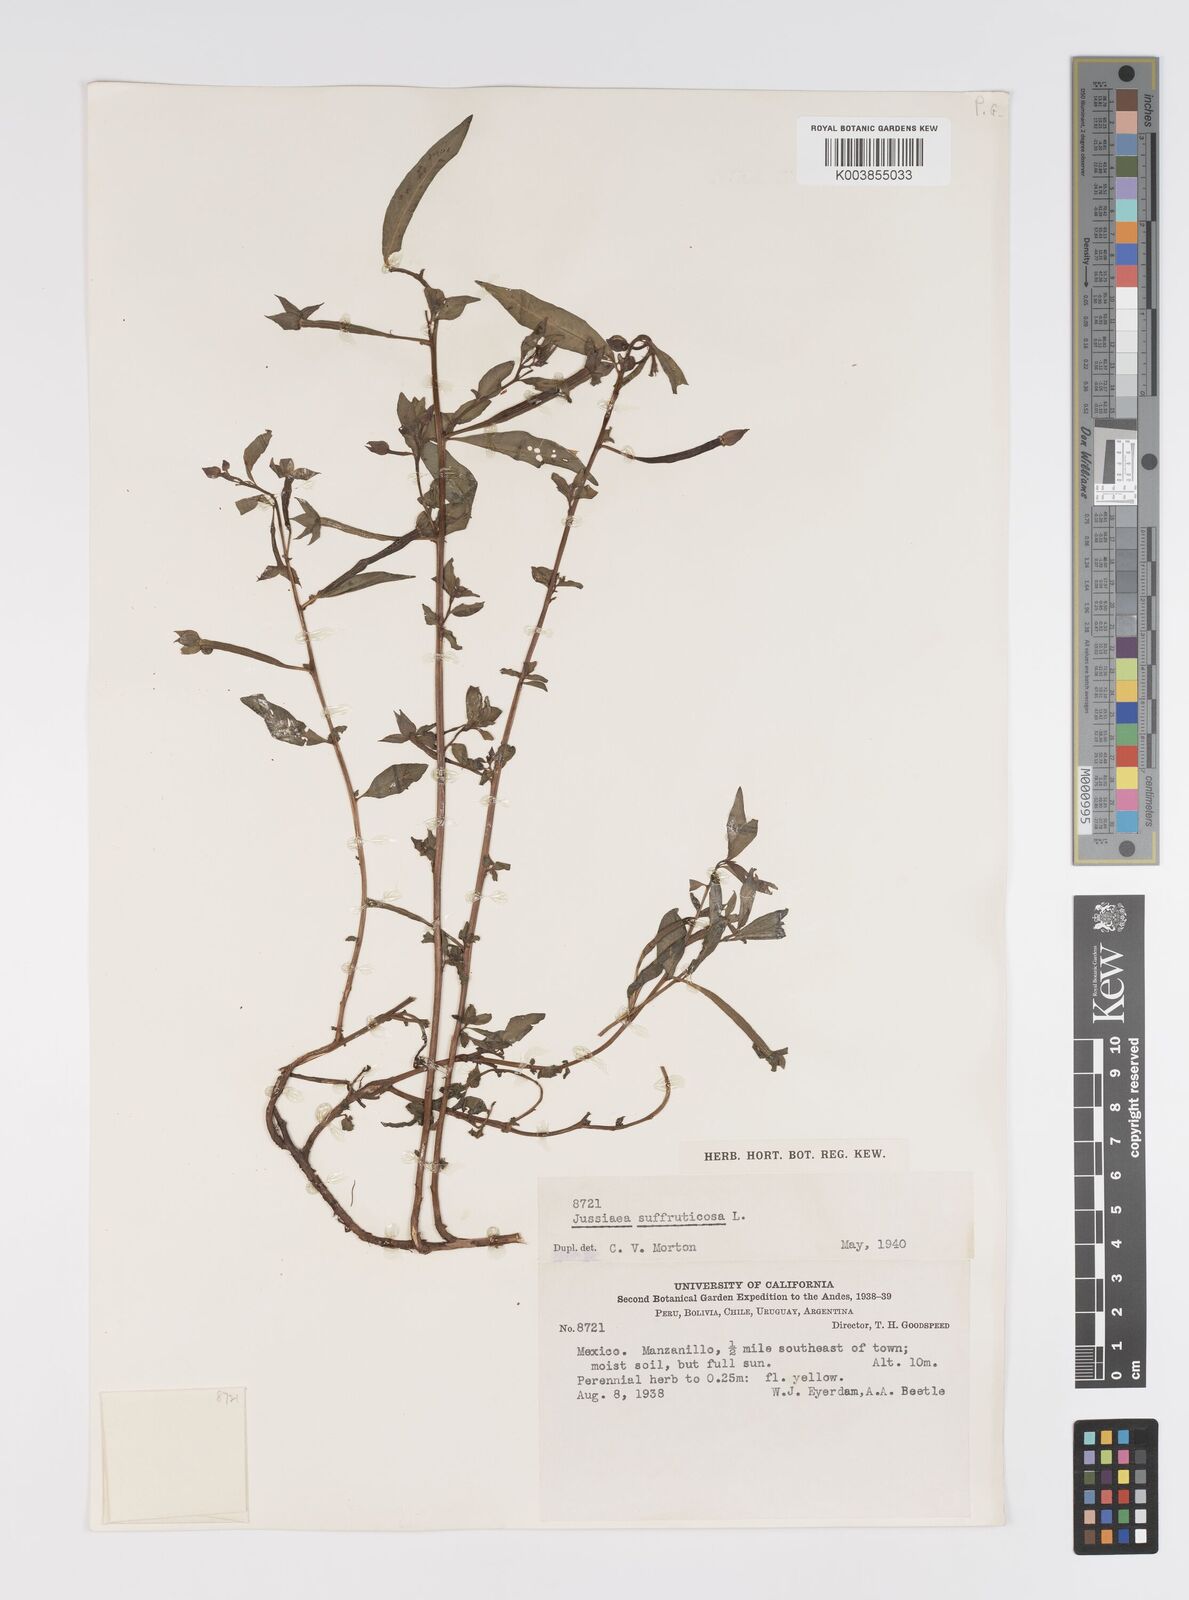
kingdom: Plantae
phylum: Tracheophyta
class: Magnoliopsida
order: Myrtales
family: Onagraceae
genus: Ludwigia
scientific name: Ludwigia octovalvis
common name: Water-primrose
